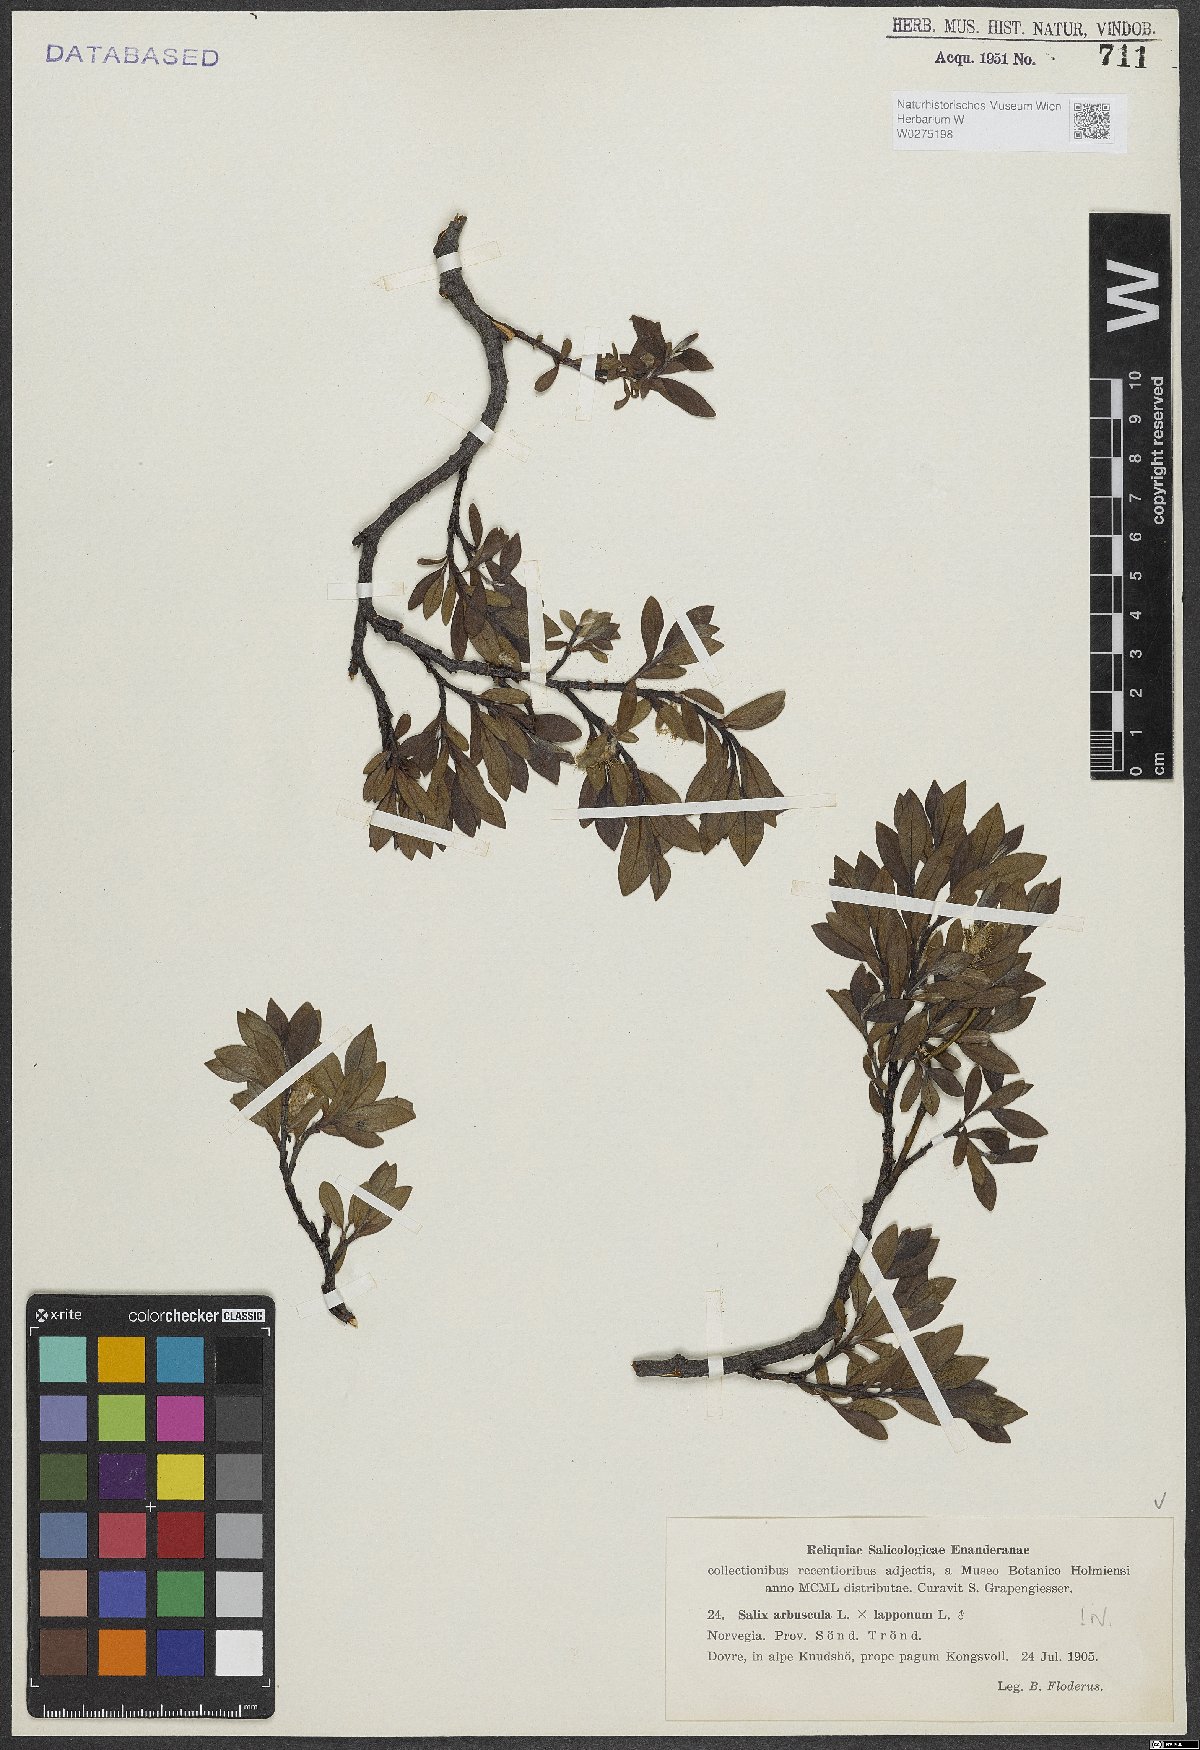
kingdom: Plantae
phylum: Tracheophyta
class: Magnoliopsida
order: Malpighiales
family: Salicaceae
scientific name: Salicaceae
